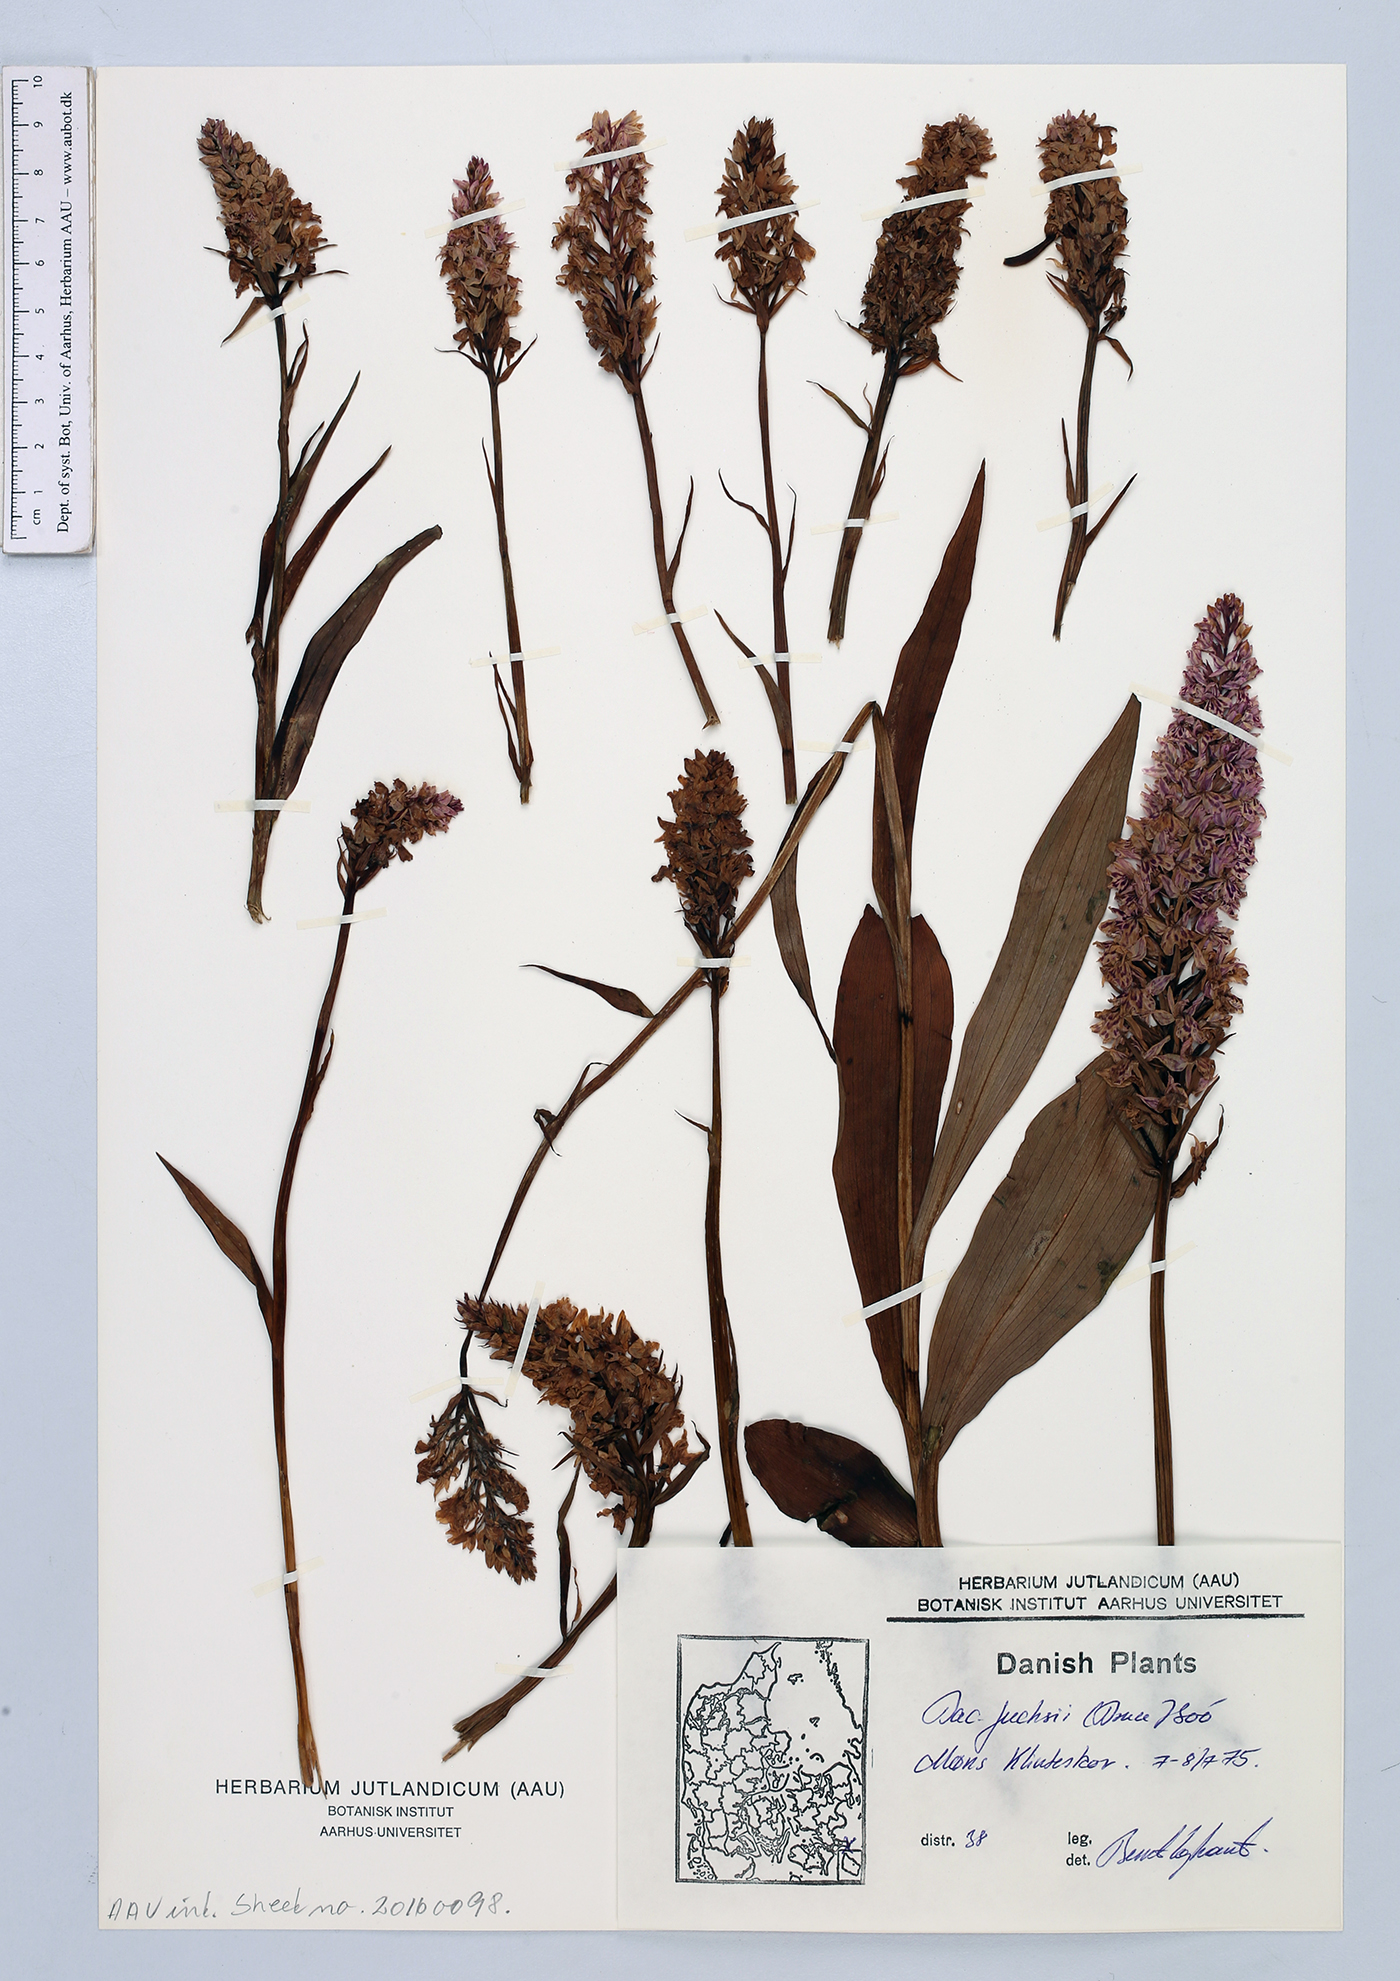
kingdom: Plantae
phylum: Tracheophyta
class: Liliopsida
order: Asparagales
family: Orchidaceae
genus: Dactylorhiza
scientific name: Dactylorhiza maculata
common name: Heath spotted-orchid
